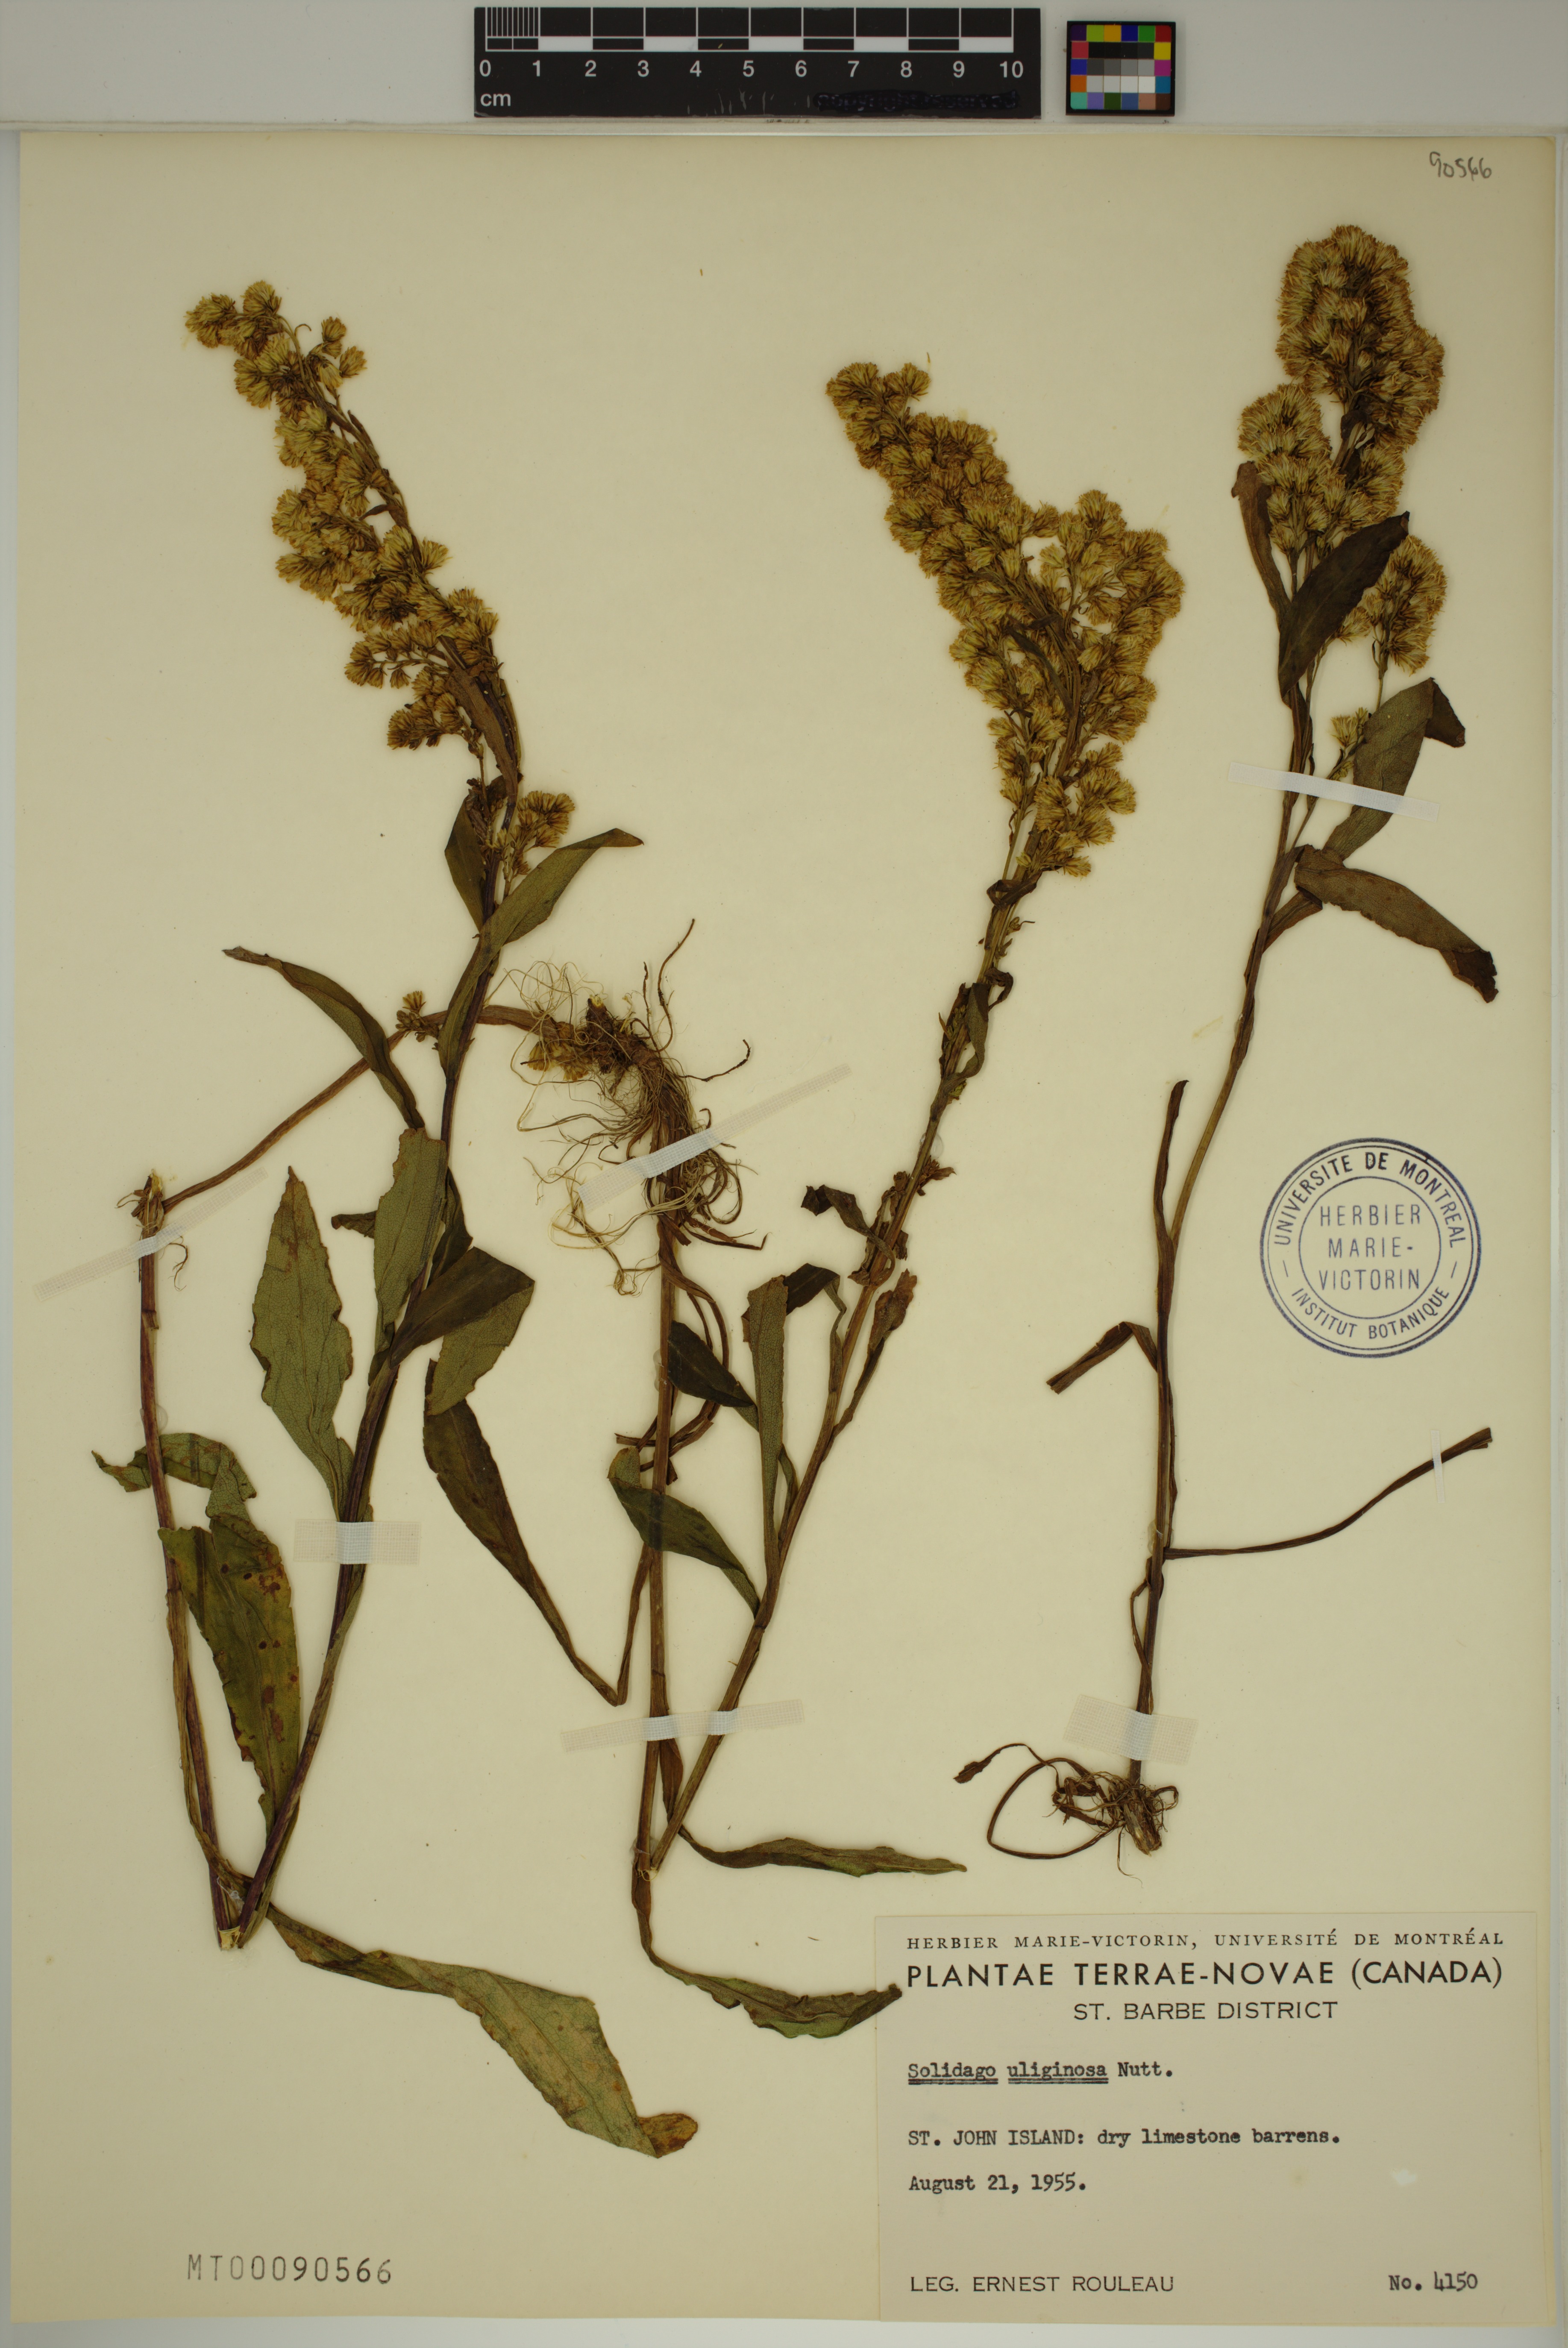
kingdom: Plantae
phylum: Tracheophyta
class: Magnoliopsida
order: Asterales
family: Asteraceae
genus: Solidago
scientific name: Solidago uliginosa
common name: Bog goldenrod
